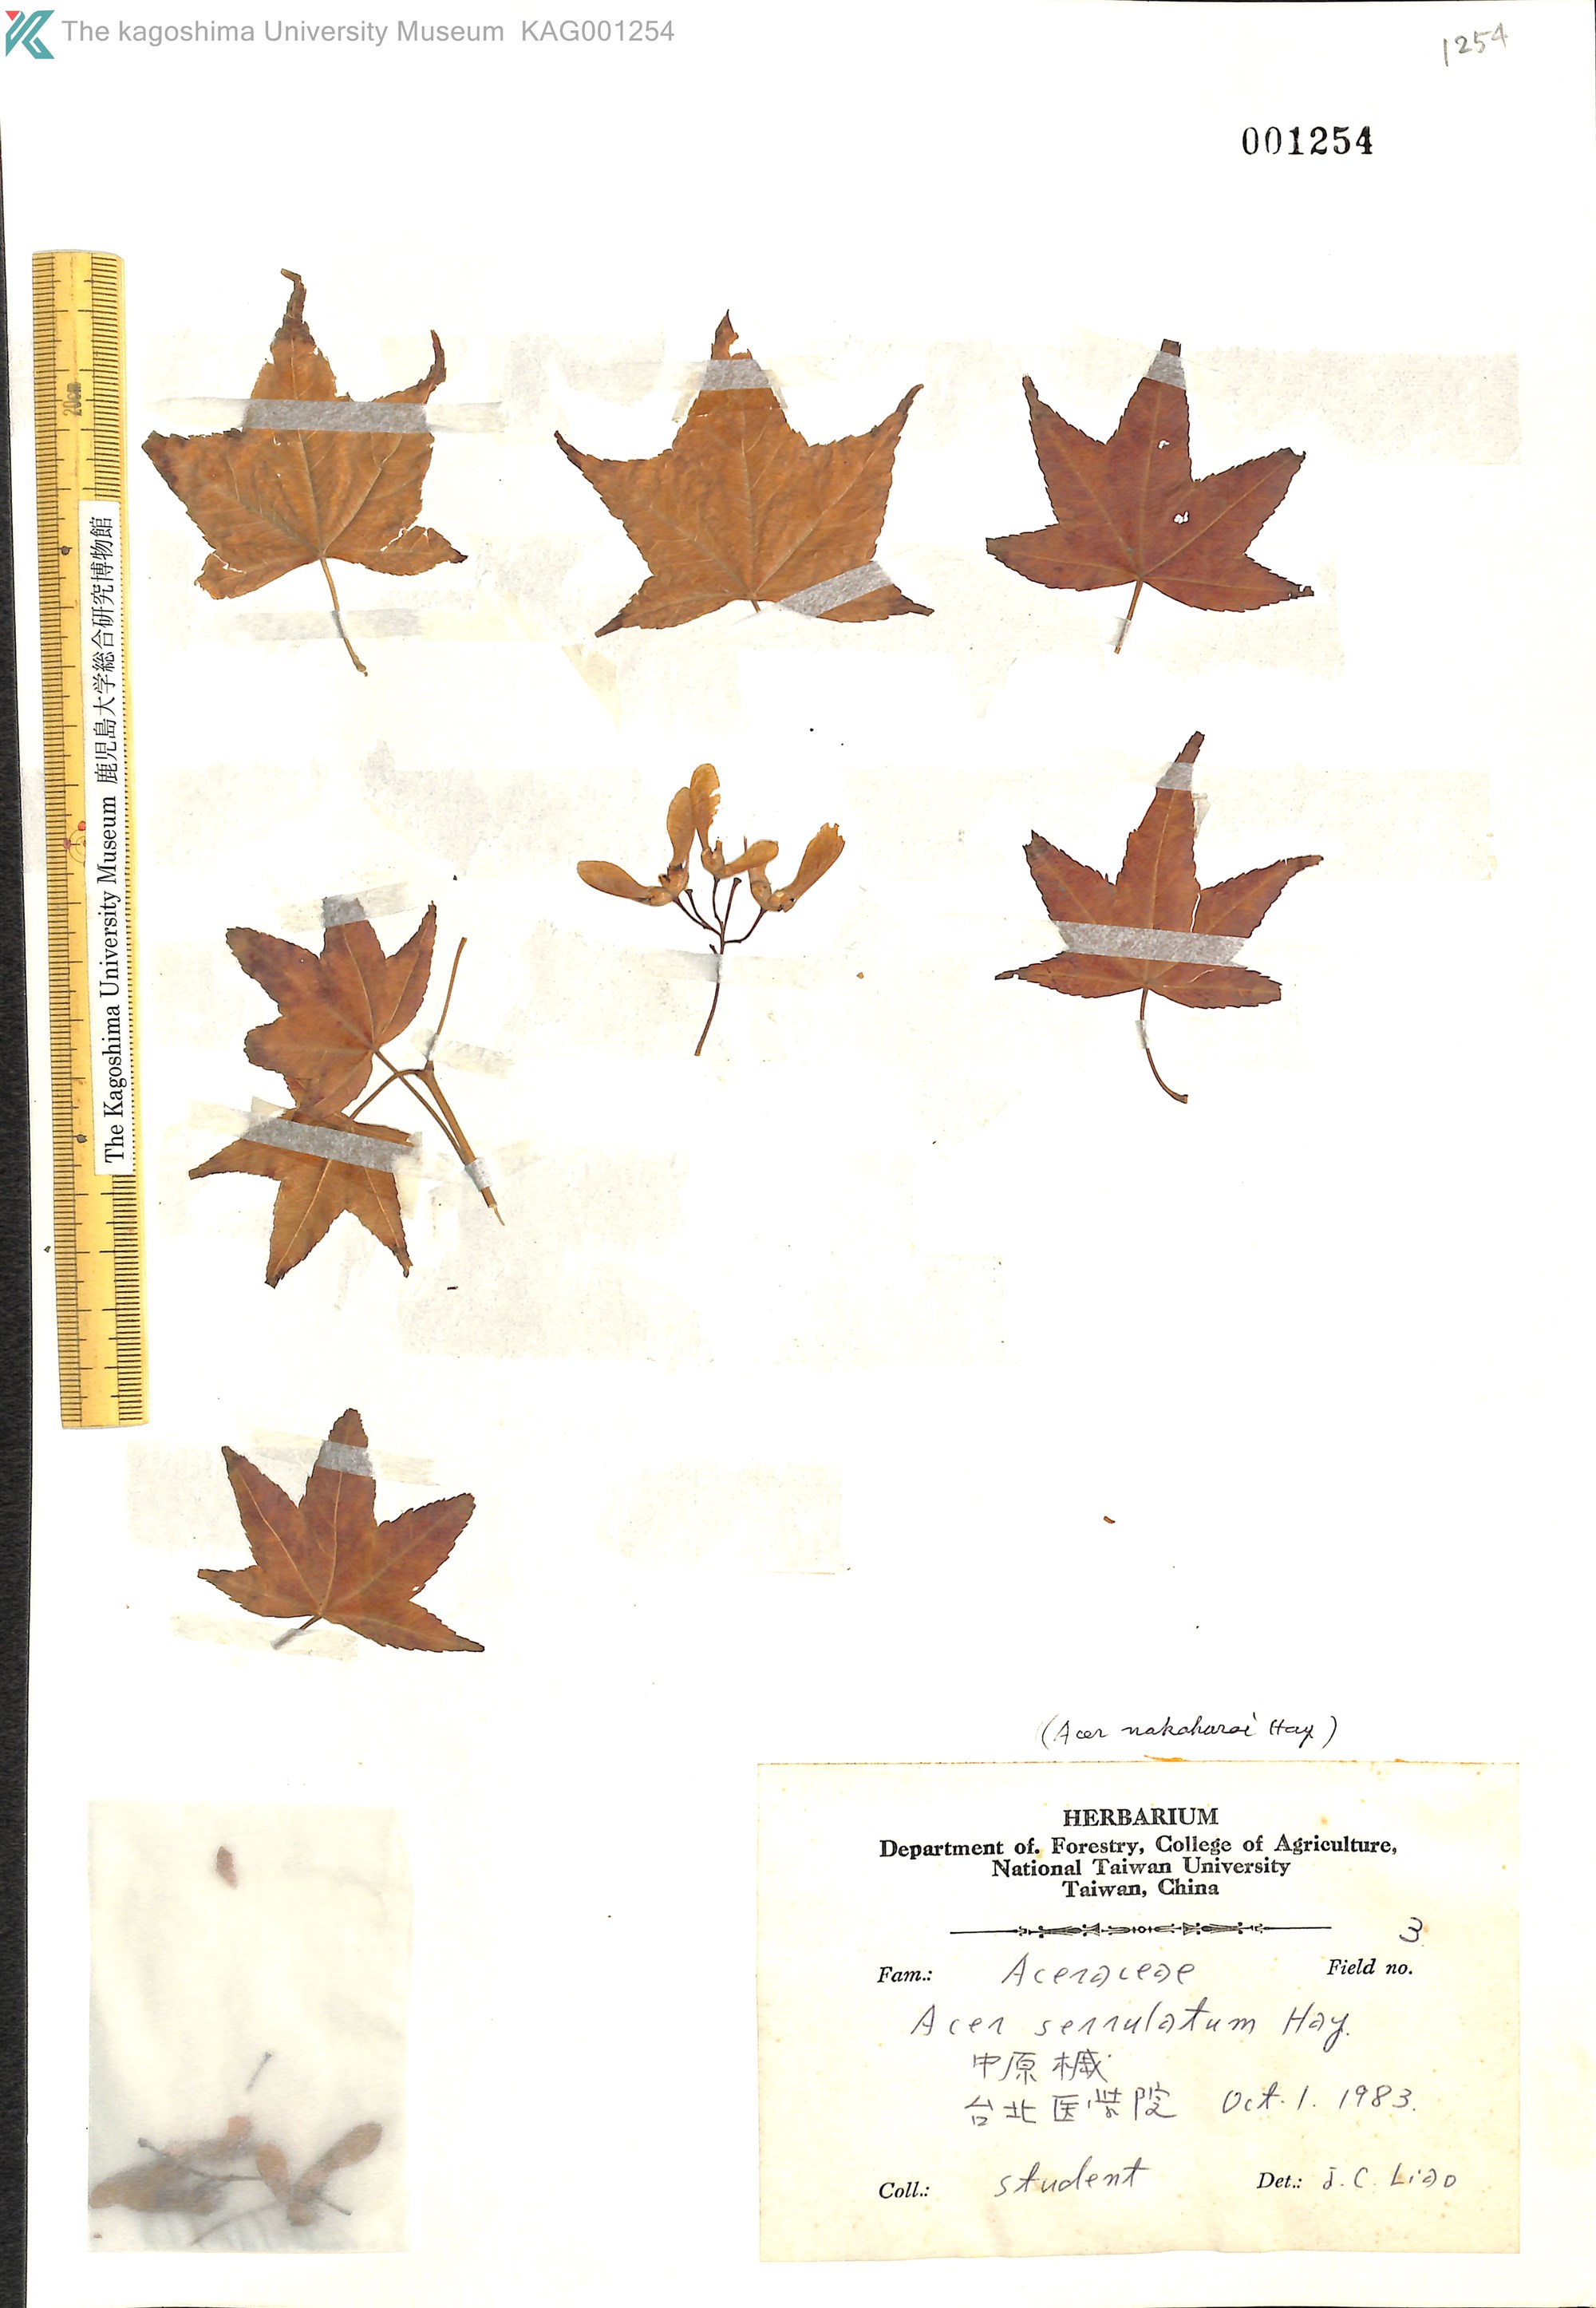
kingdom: Plantae
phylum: Tracheophyta
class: Magnoliopsida
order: Sapindales
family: Sapindaceae
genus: Acer
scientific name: Acer serrulatum
